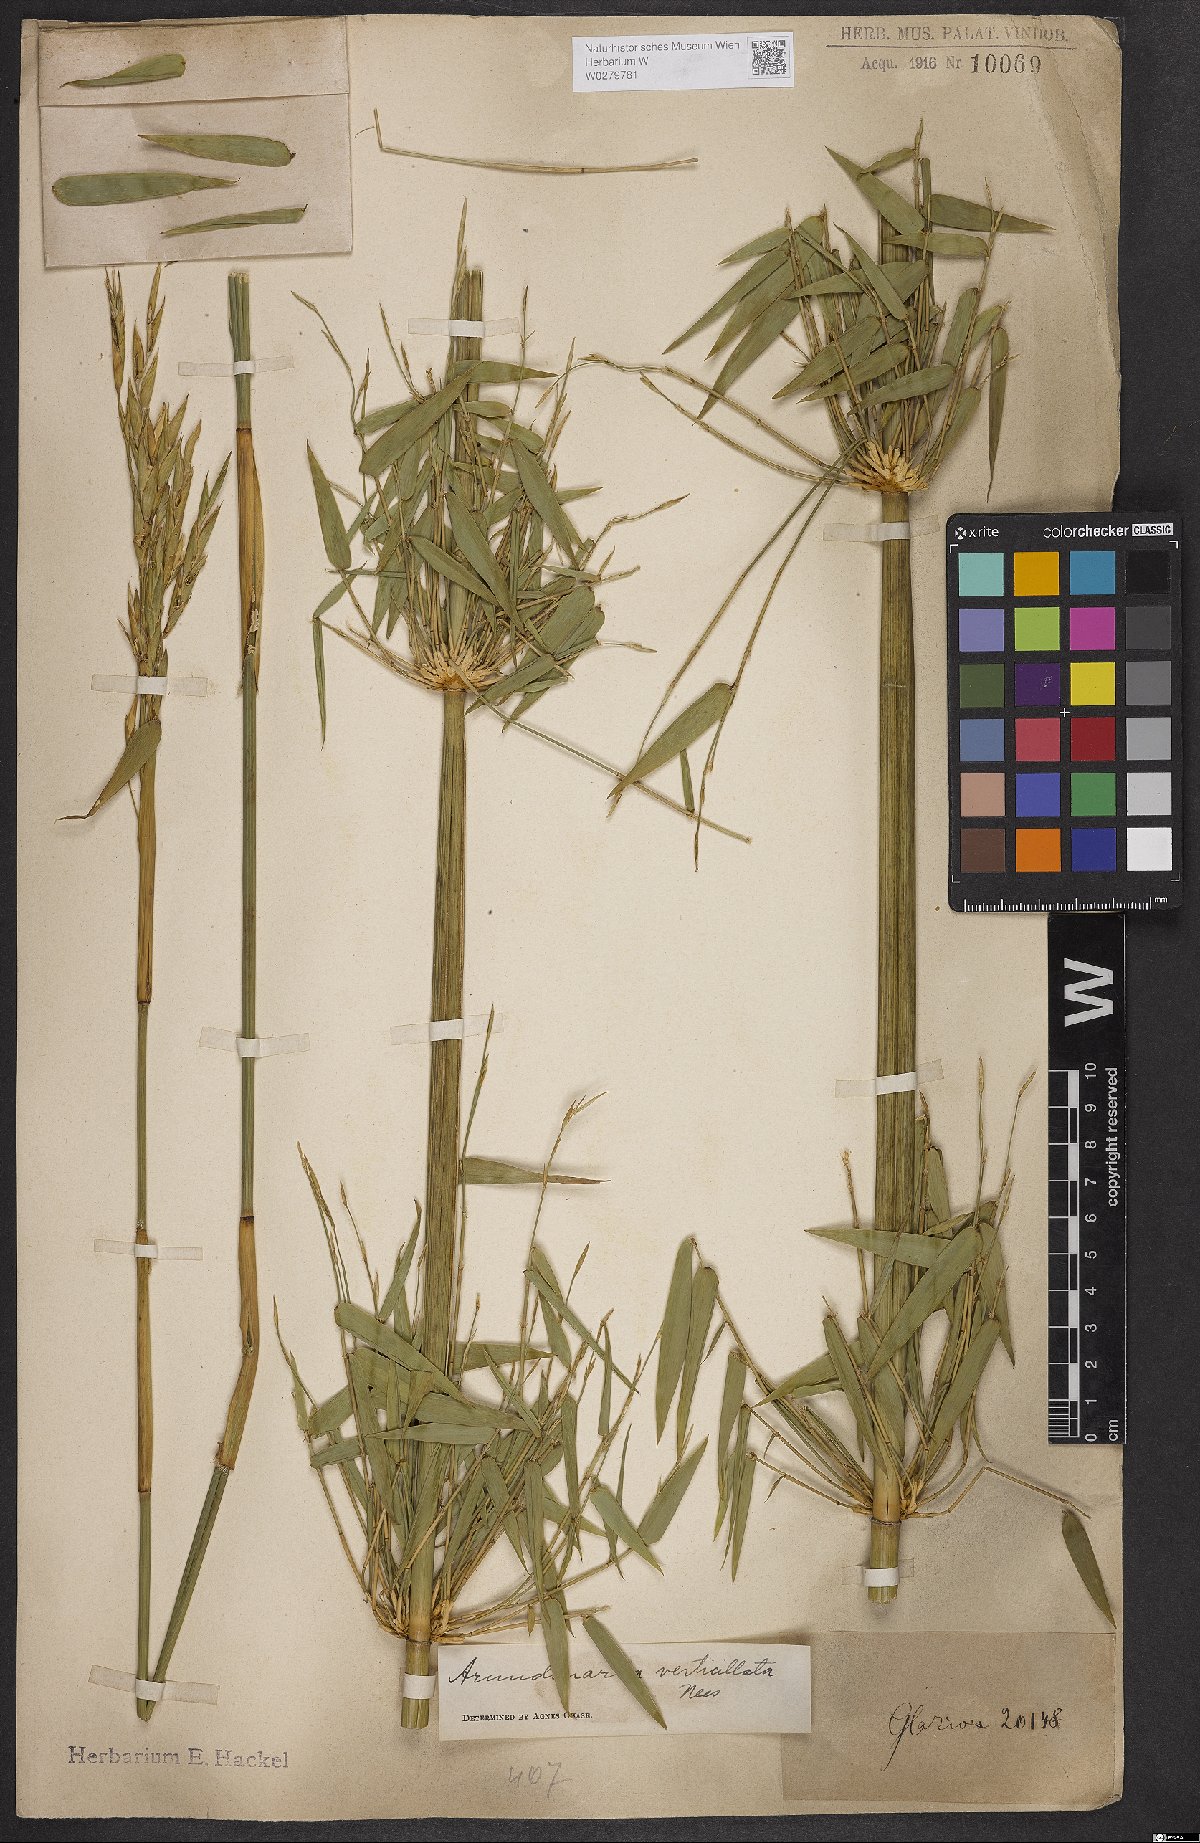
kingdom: Plantae
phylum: Tracheophyta
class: Liliopsida
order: Poales
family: Poaceae
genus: Actinocladum
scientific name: Actinocladum verticillatum
